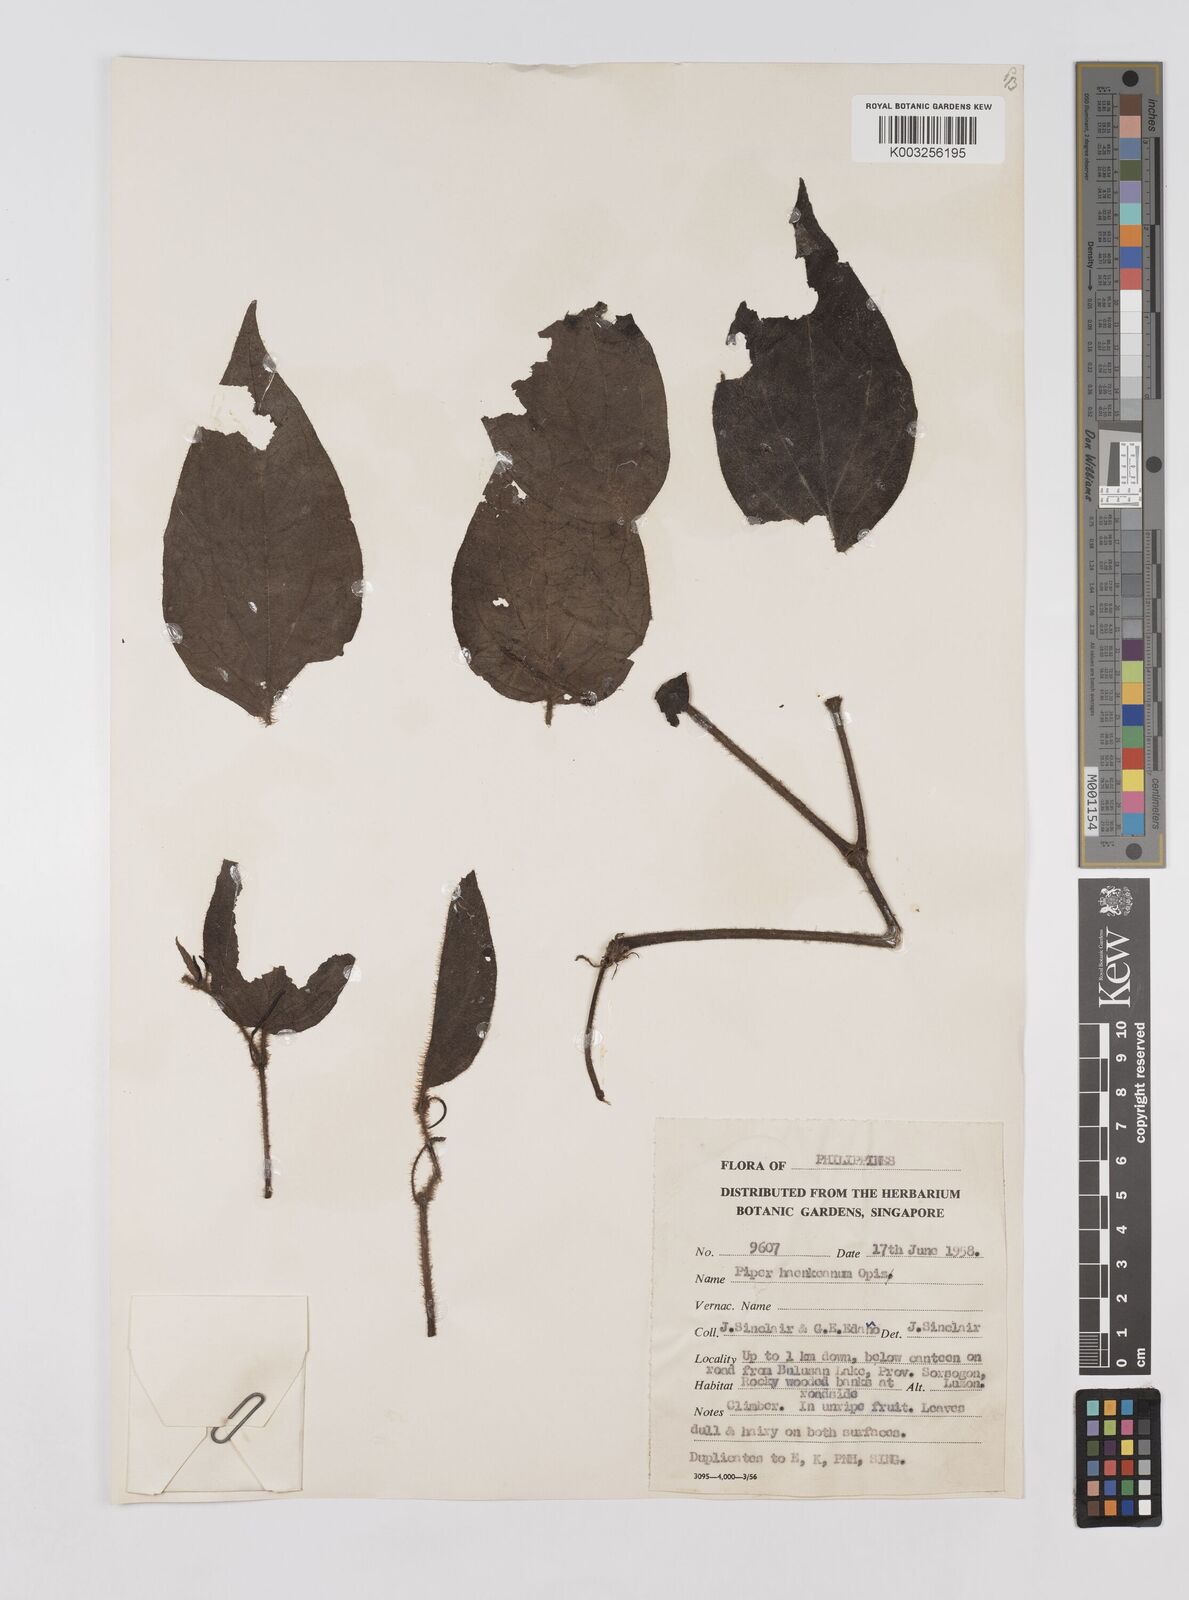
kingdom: Plantae
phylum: Tracheophyta
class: Magnoliopsida
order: Piperales
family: Piperaceae
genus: Piper
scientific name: Piper lanatum
